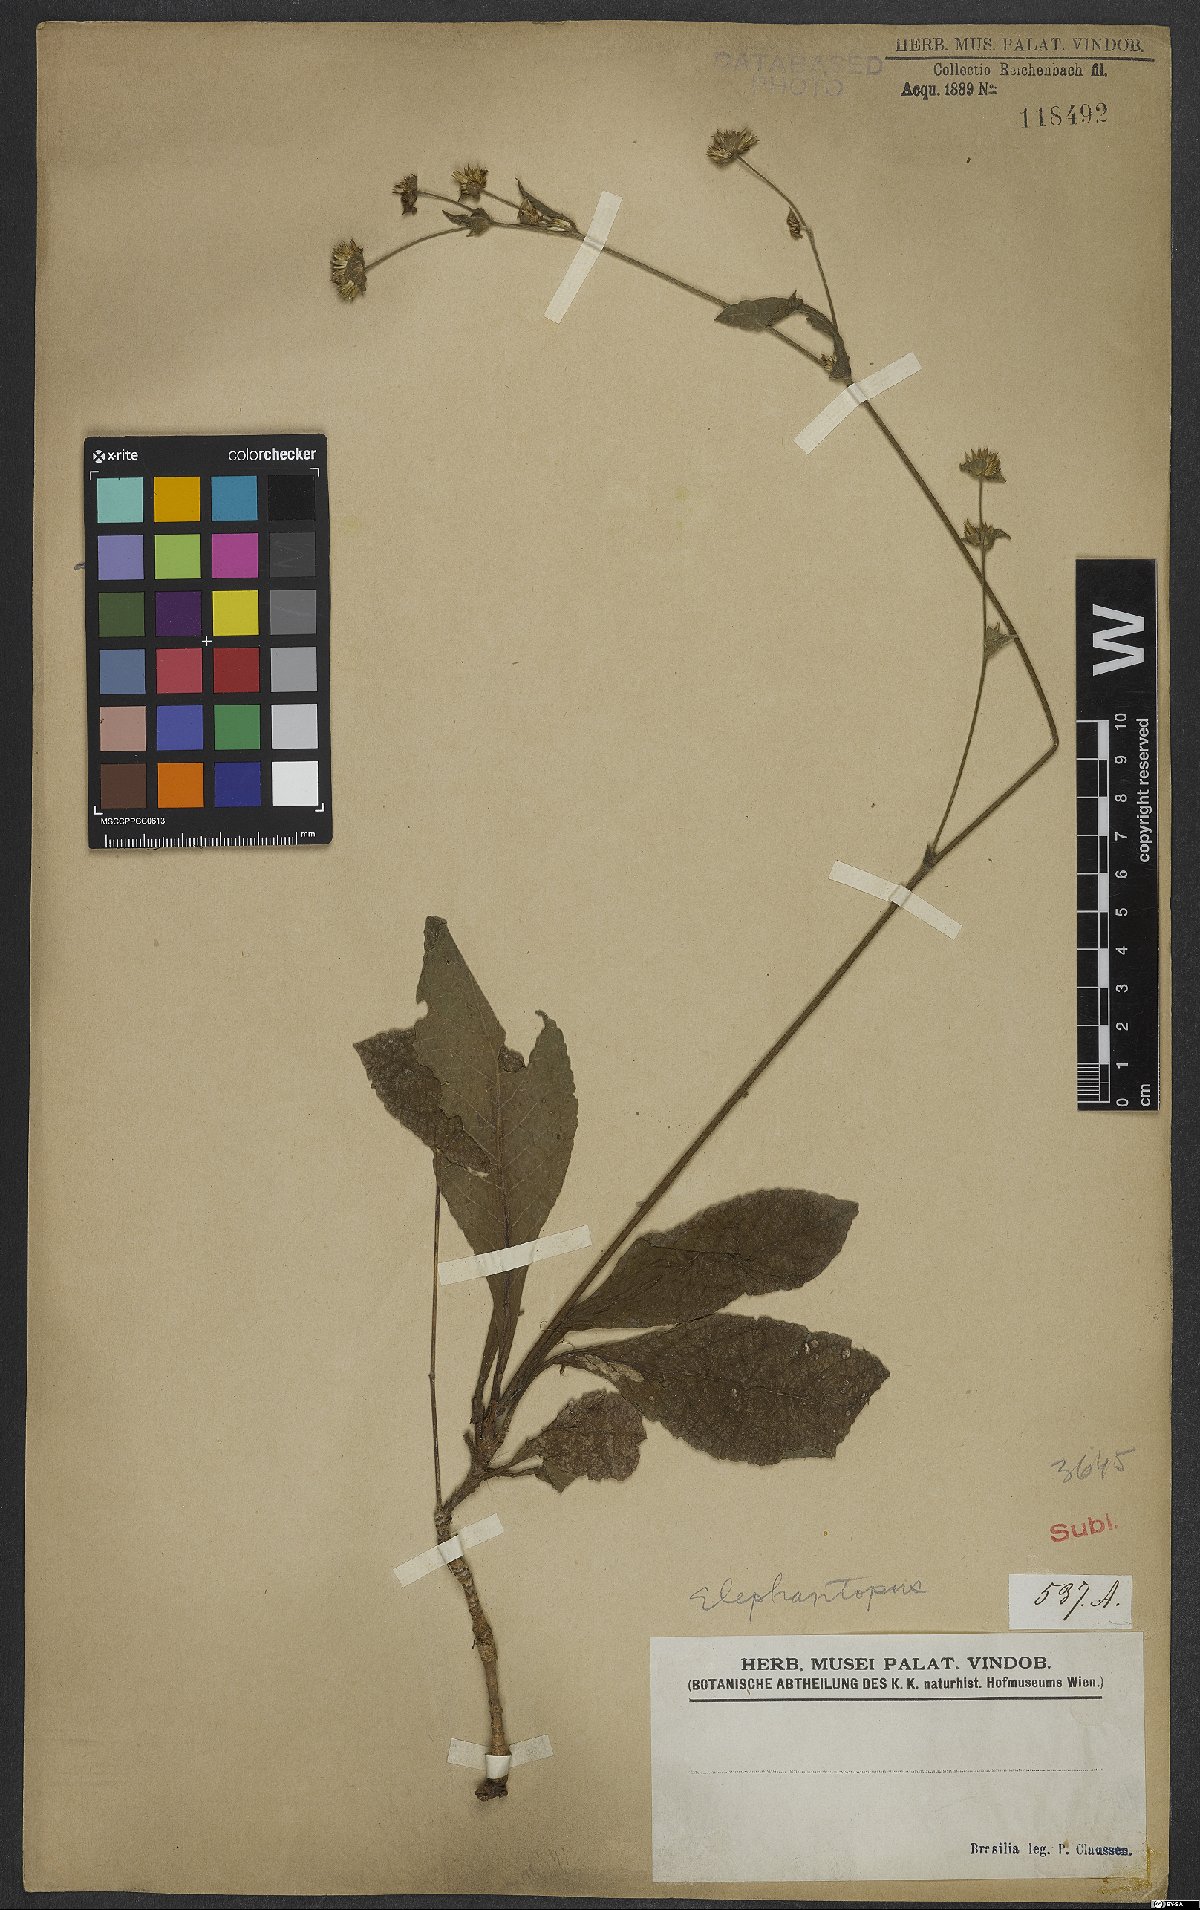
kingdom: Plantae
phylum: Tracheophyta
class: Magnoliopsida
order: Asterales
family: Asteraceae
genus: Elephantopus
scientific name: Elephantopus
